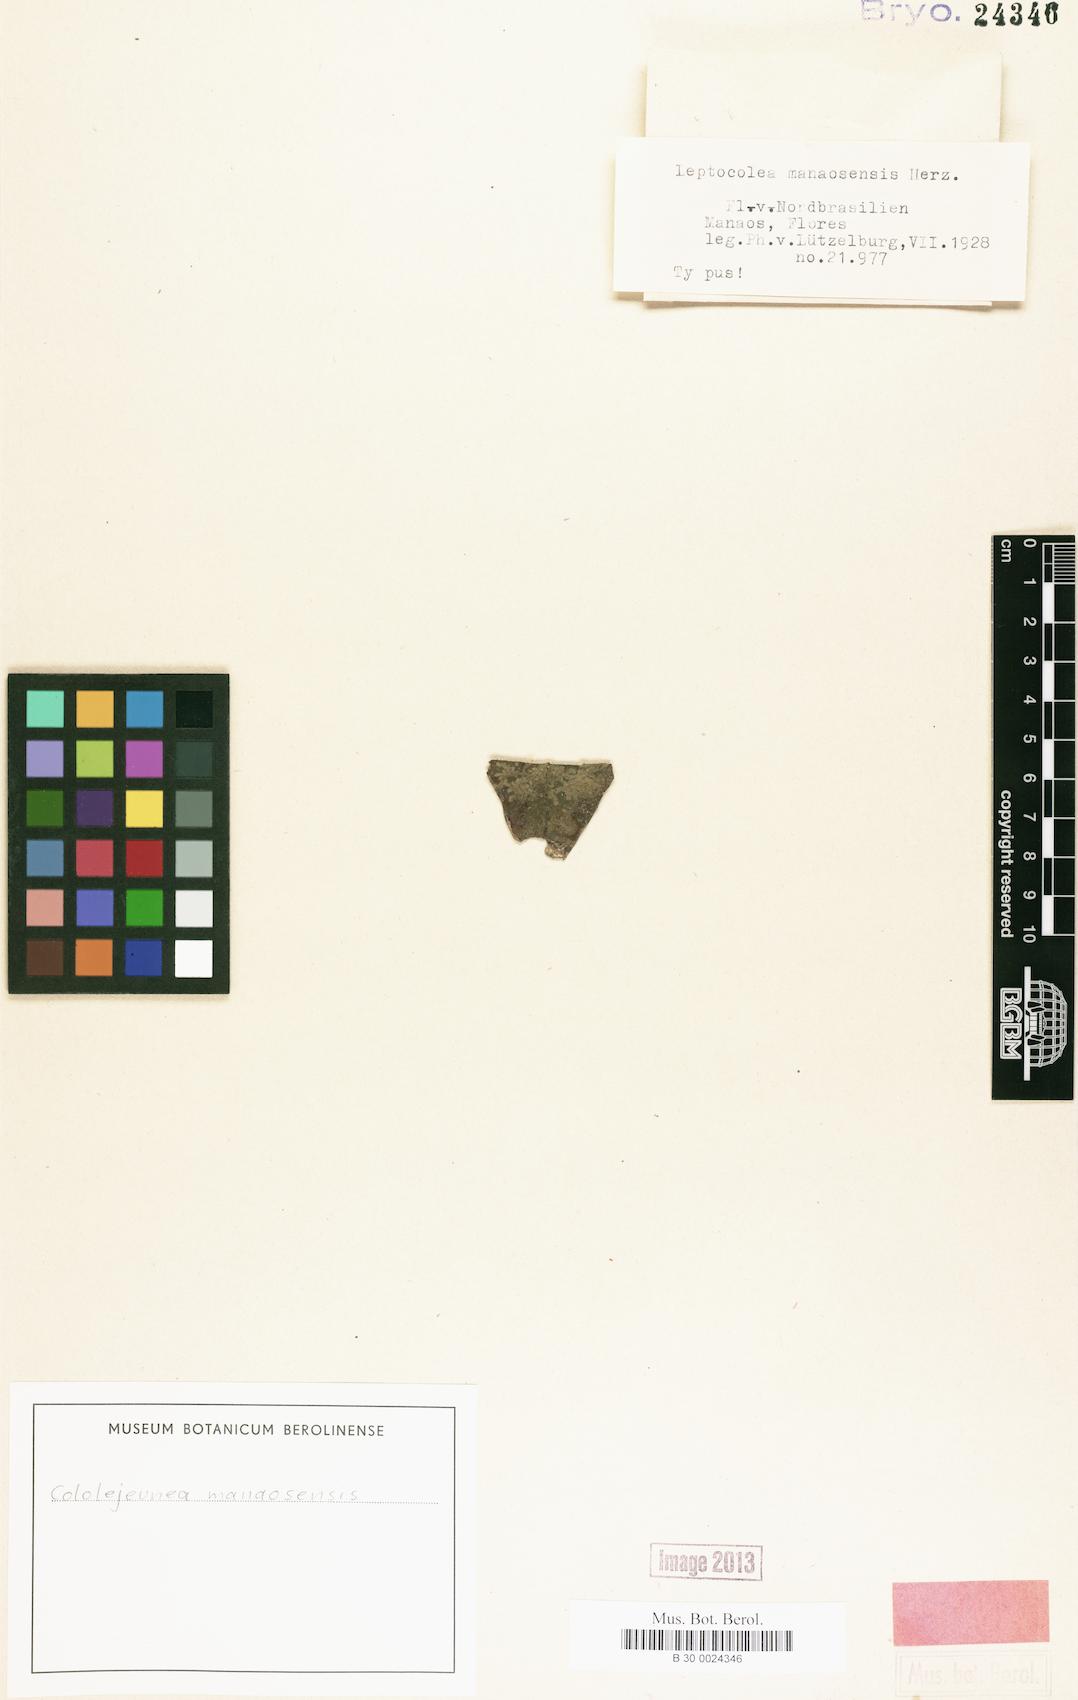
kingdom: Plantae
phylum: Marchantiophyta
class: Jungermanniopsida
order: Porellales
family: Lejeuneaceae
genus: Cololejeunea
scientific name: Cololejeunea subscariosa
